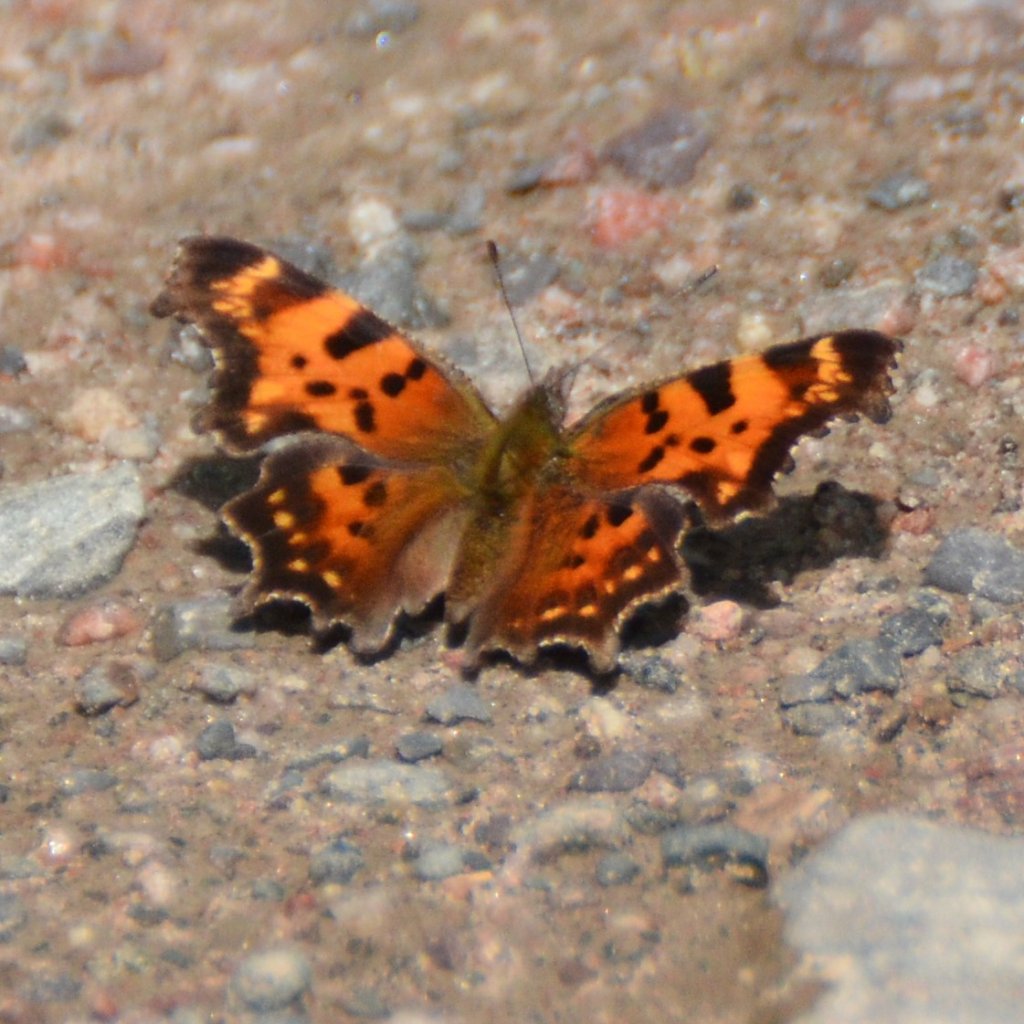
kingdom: Animalia
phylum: Arthropoda
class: Insecta
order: Lepidoptera
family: Nymphalidae
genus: Polygonia
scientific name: Polygonia faunus
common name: Green Comma
